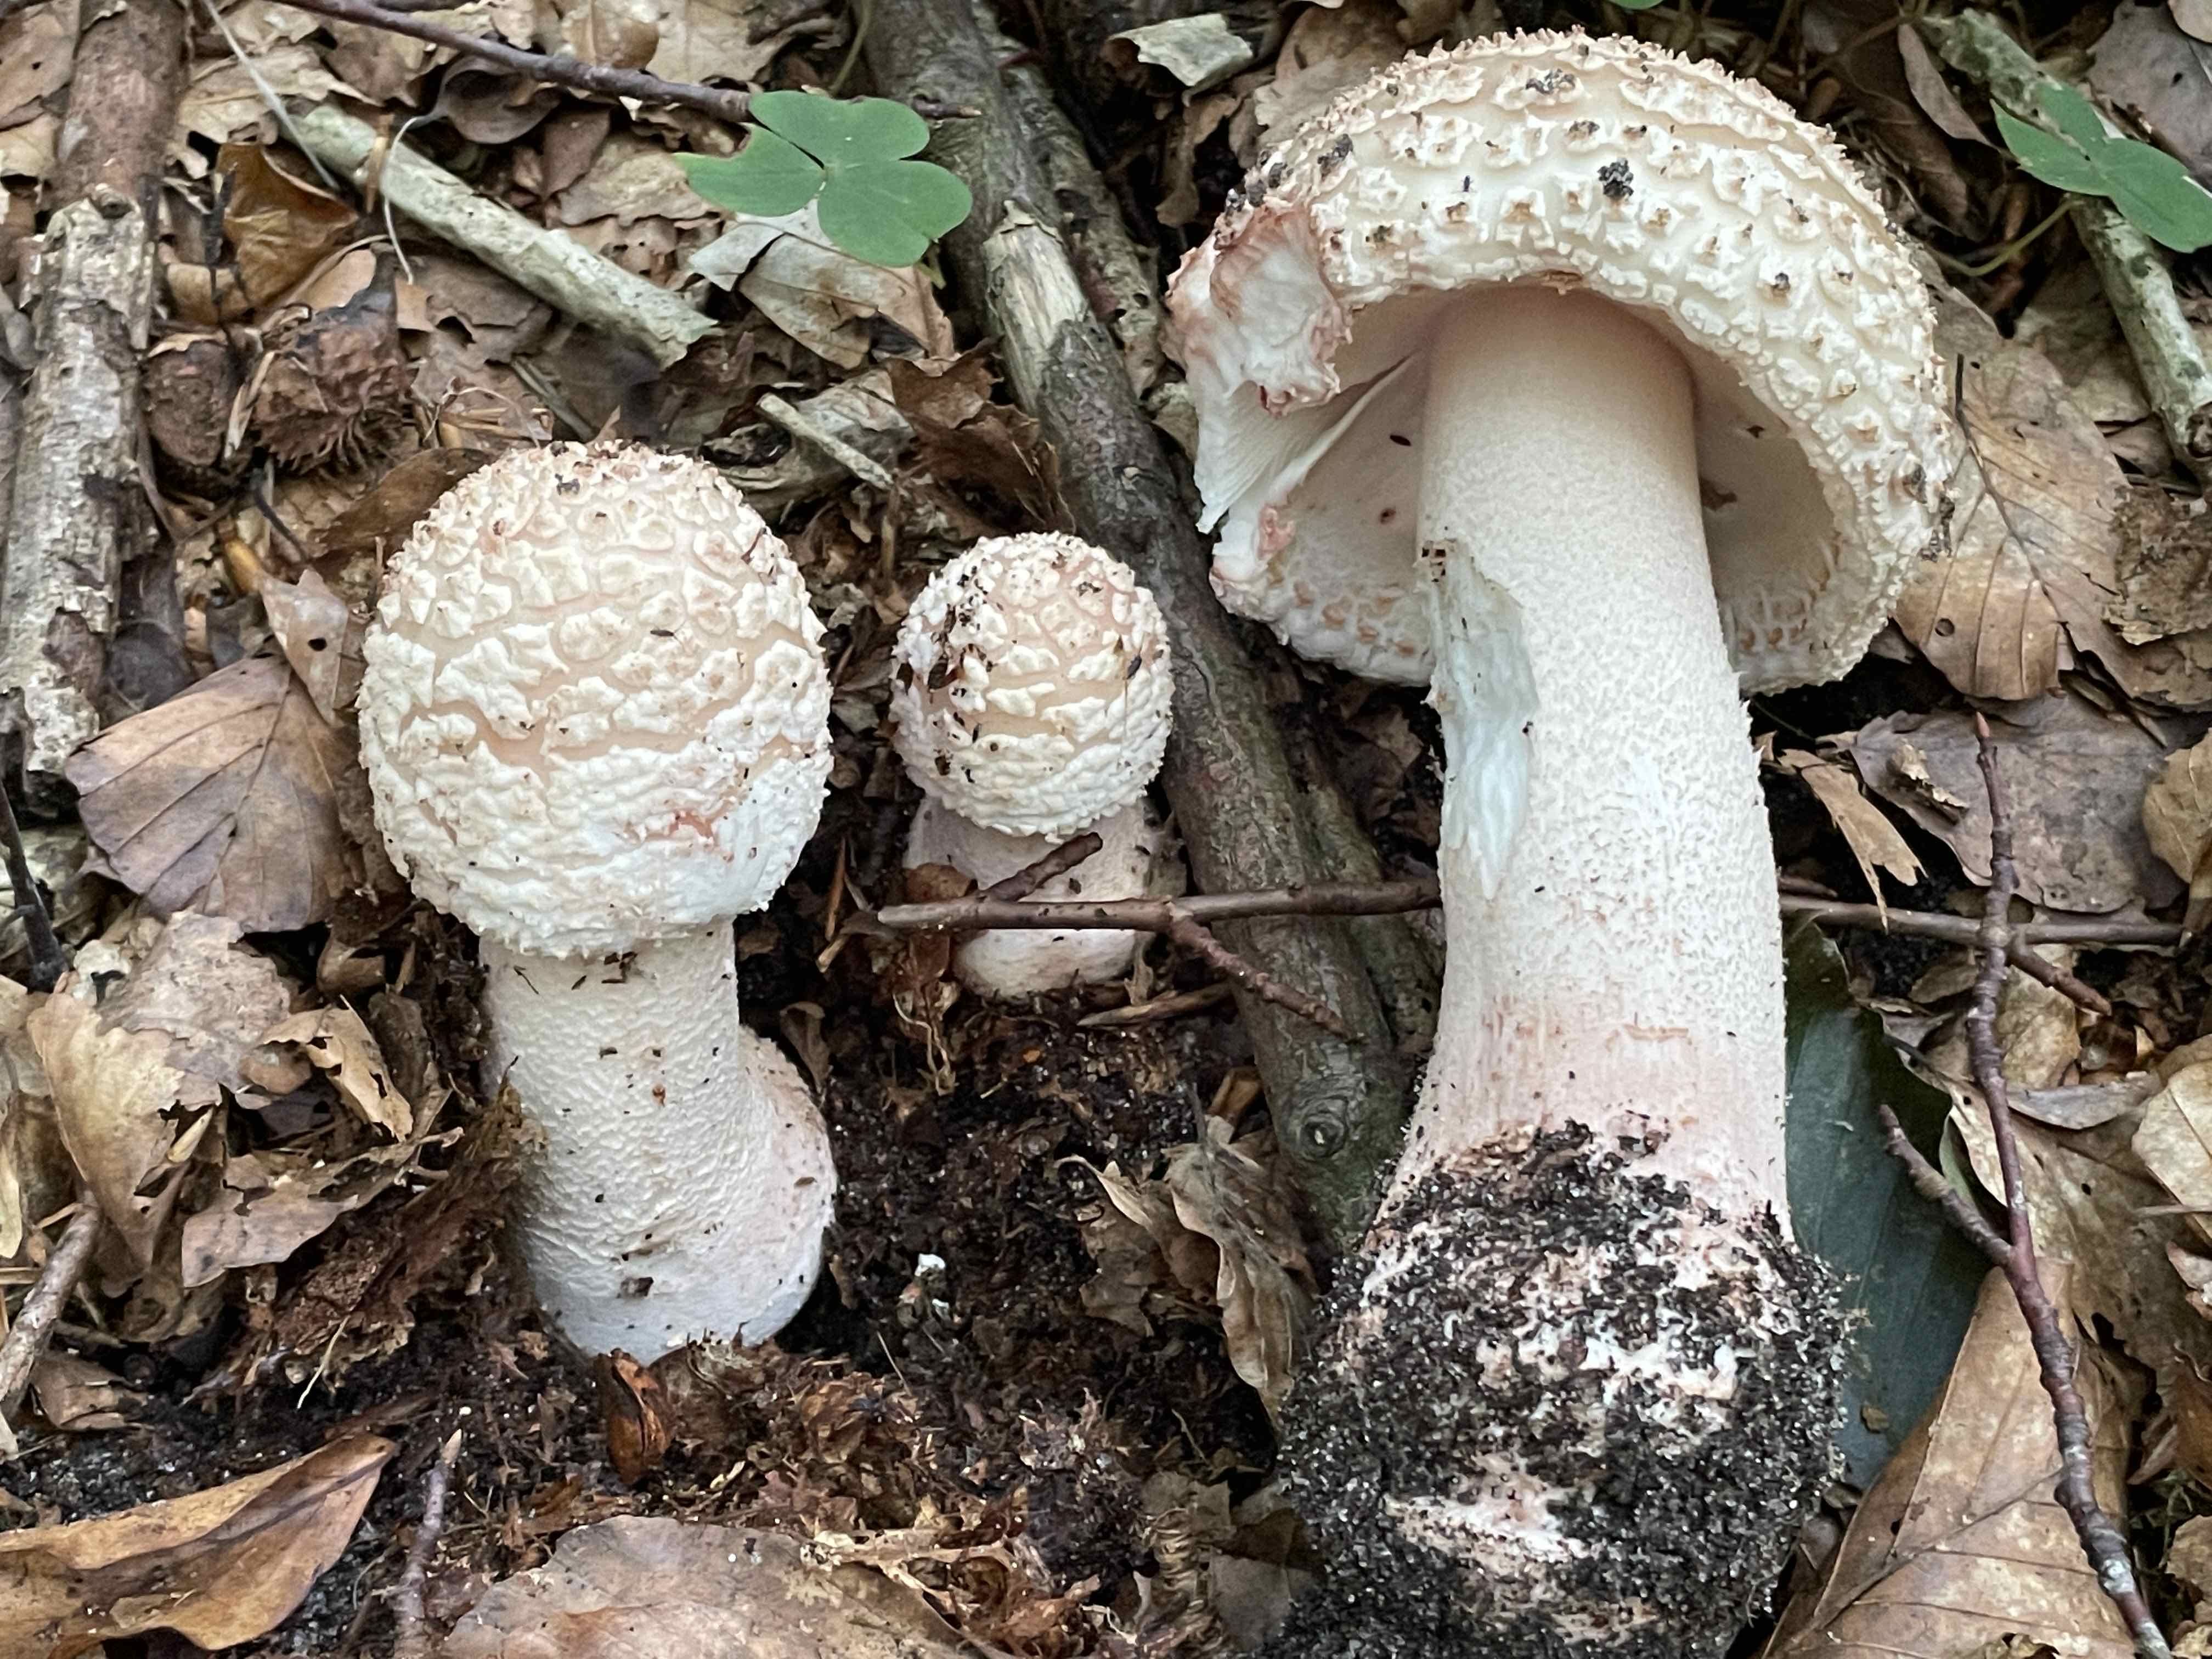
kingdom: Fungi
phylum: Basidiomycota
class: Agaricomycetes
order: Agaricales
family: Amanitaceae
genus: Amanita
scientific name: Amanita rubescens
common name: rødmende fluesvamp
